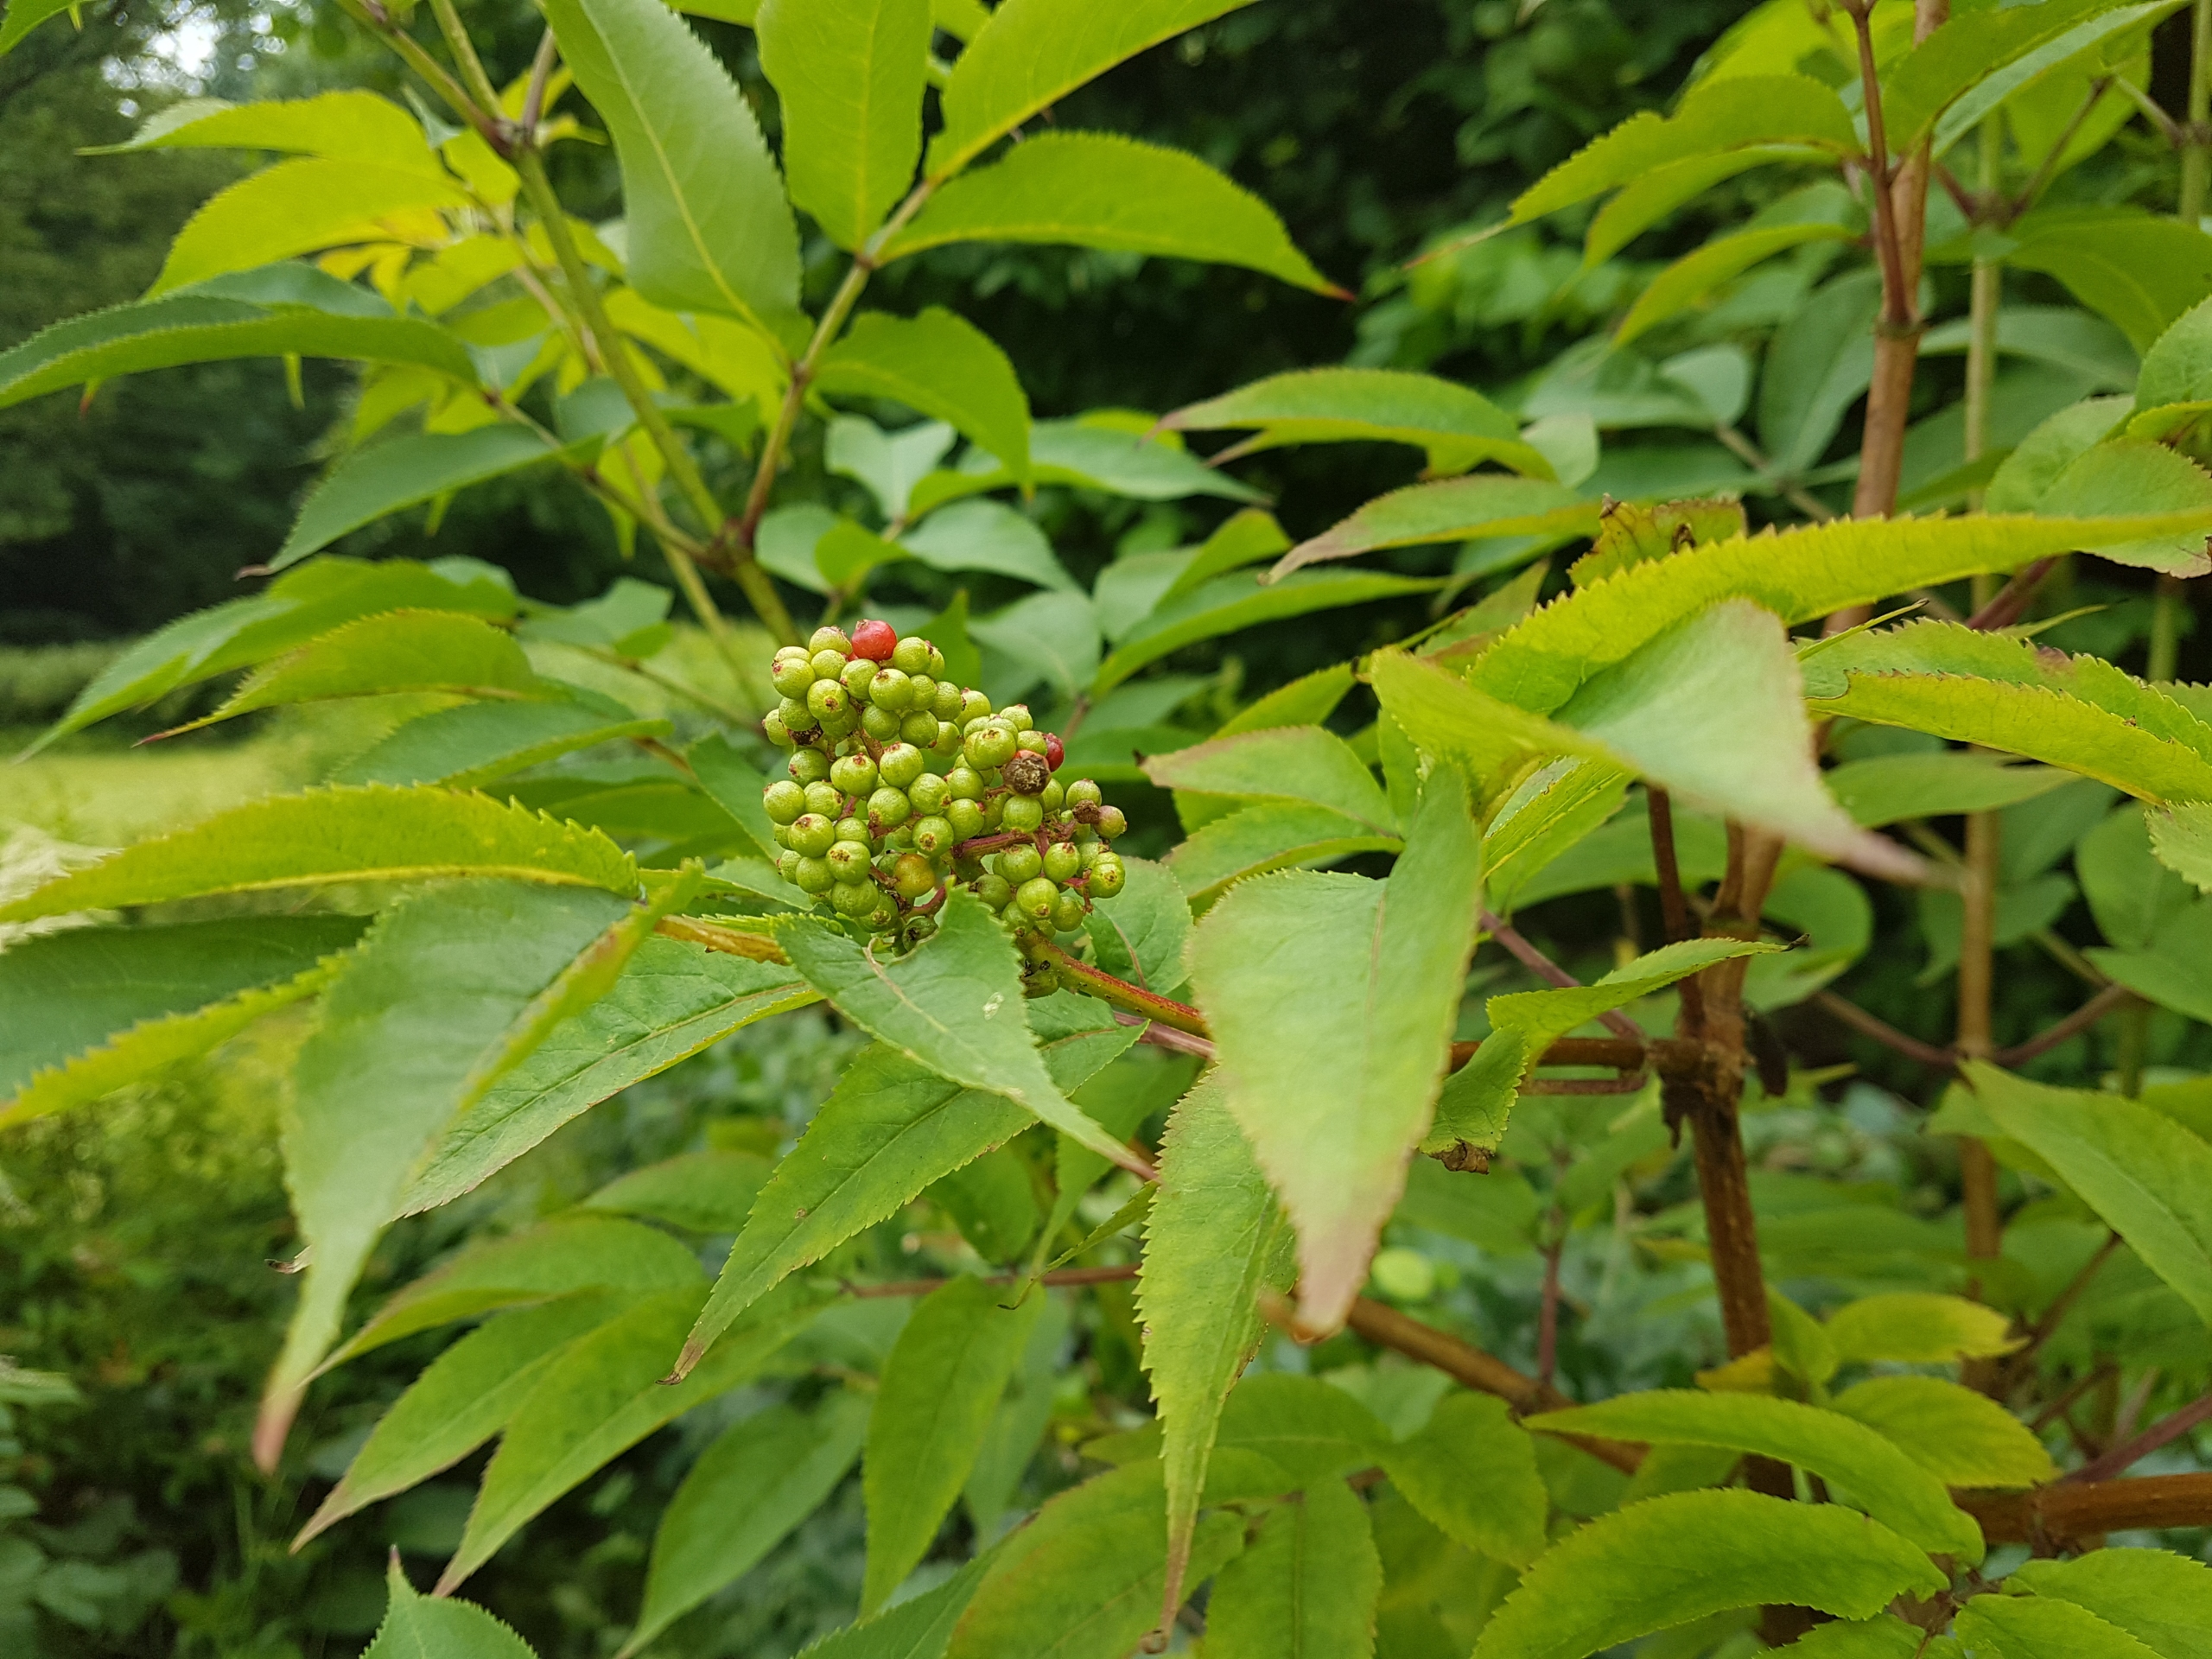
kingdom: Plantae
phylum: Tracheophyta
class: Magnoliopsida
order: Dipsacales
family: Viburnaceae
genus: Sambucus
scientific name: Sambucus racemosa
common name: Drue-hyld
